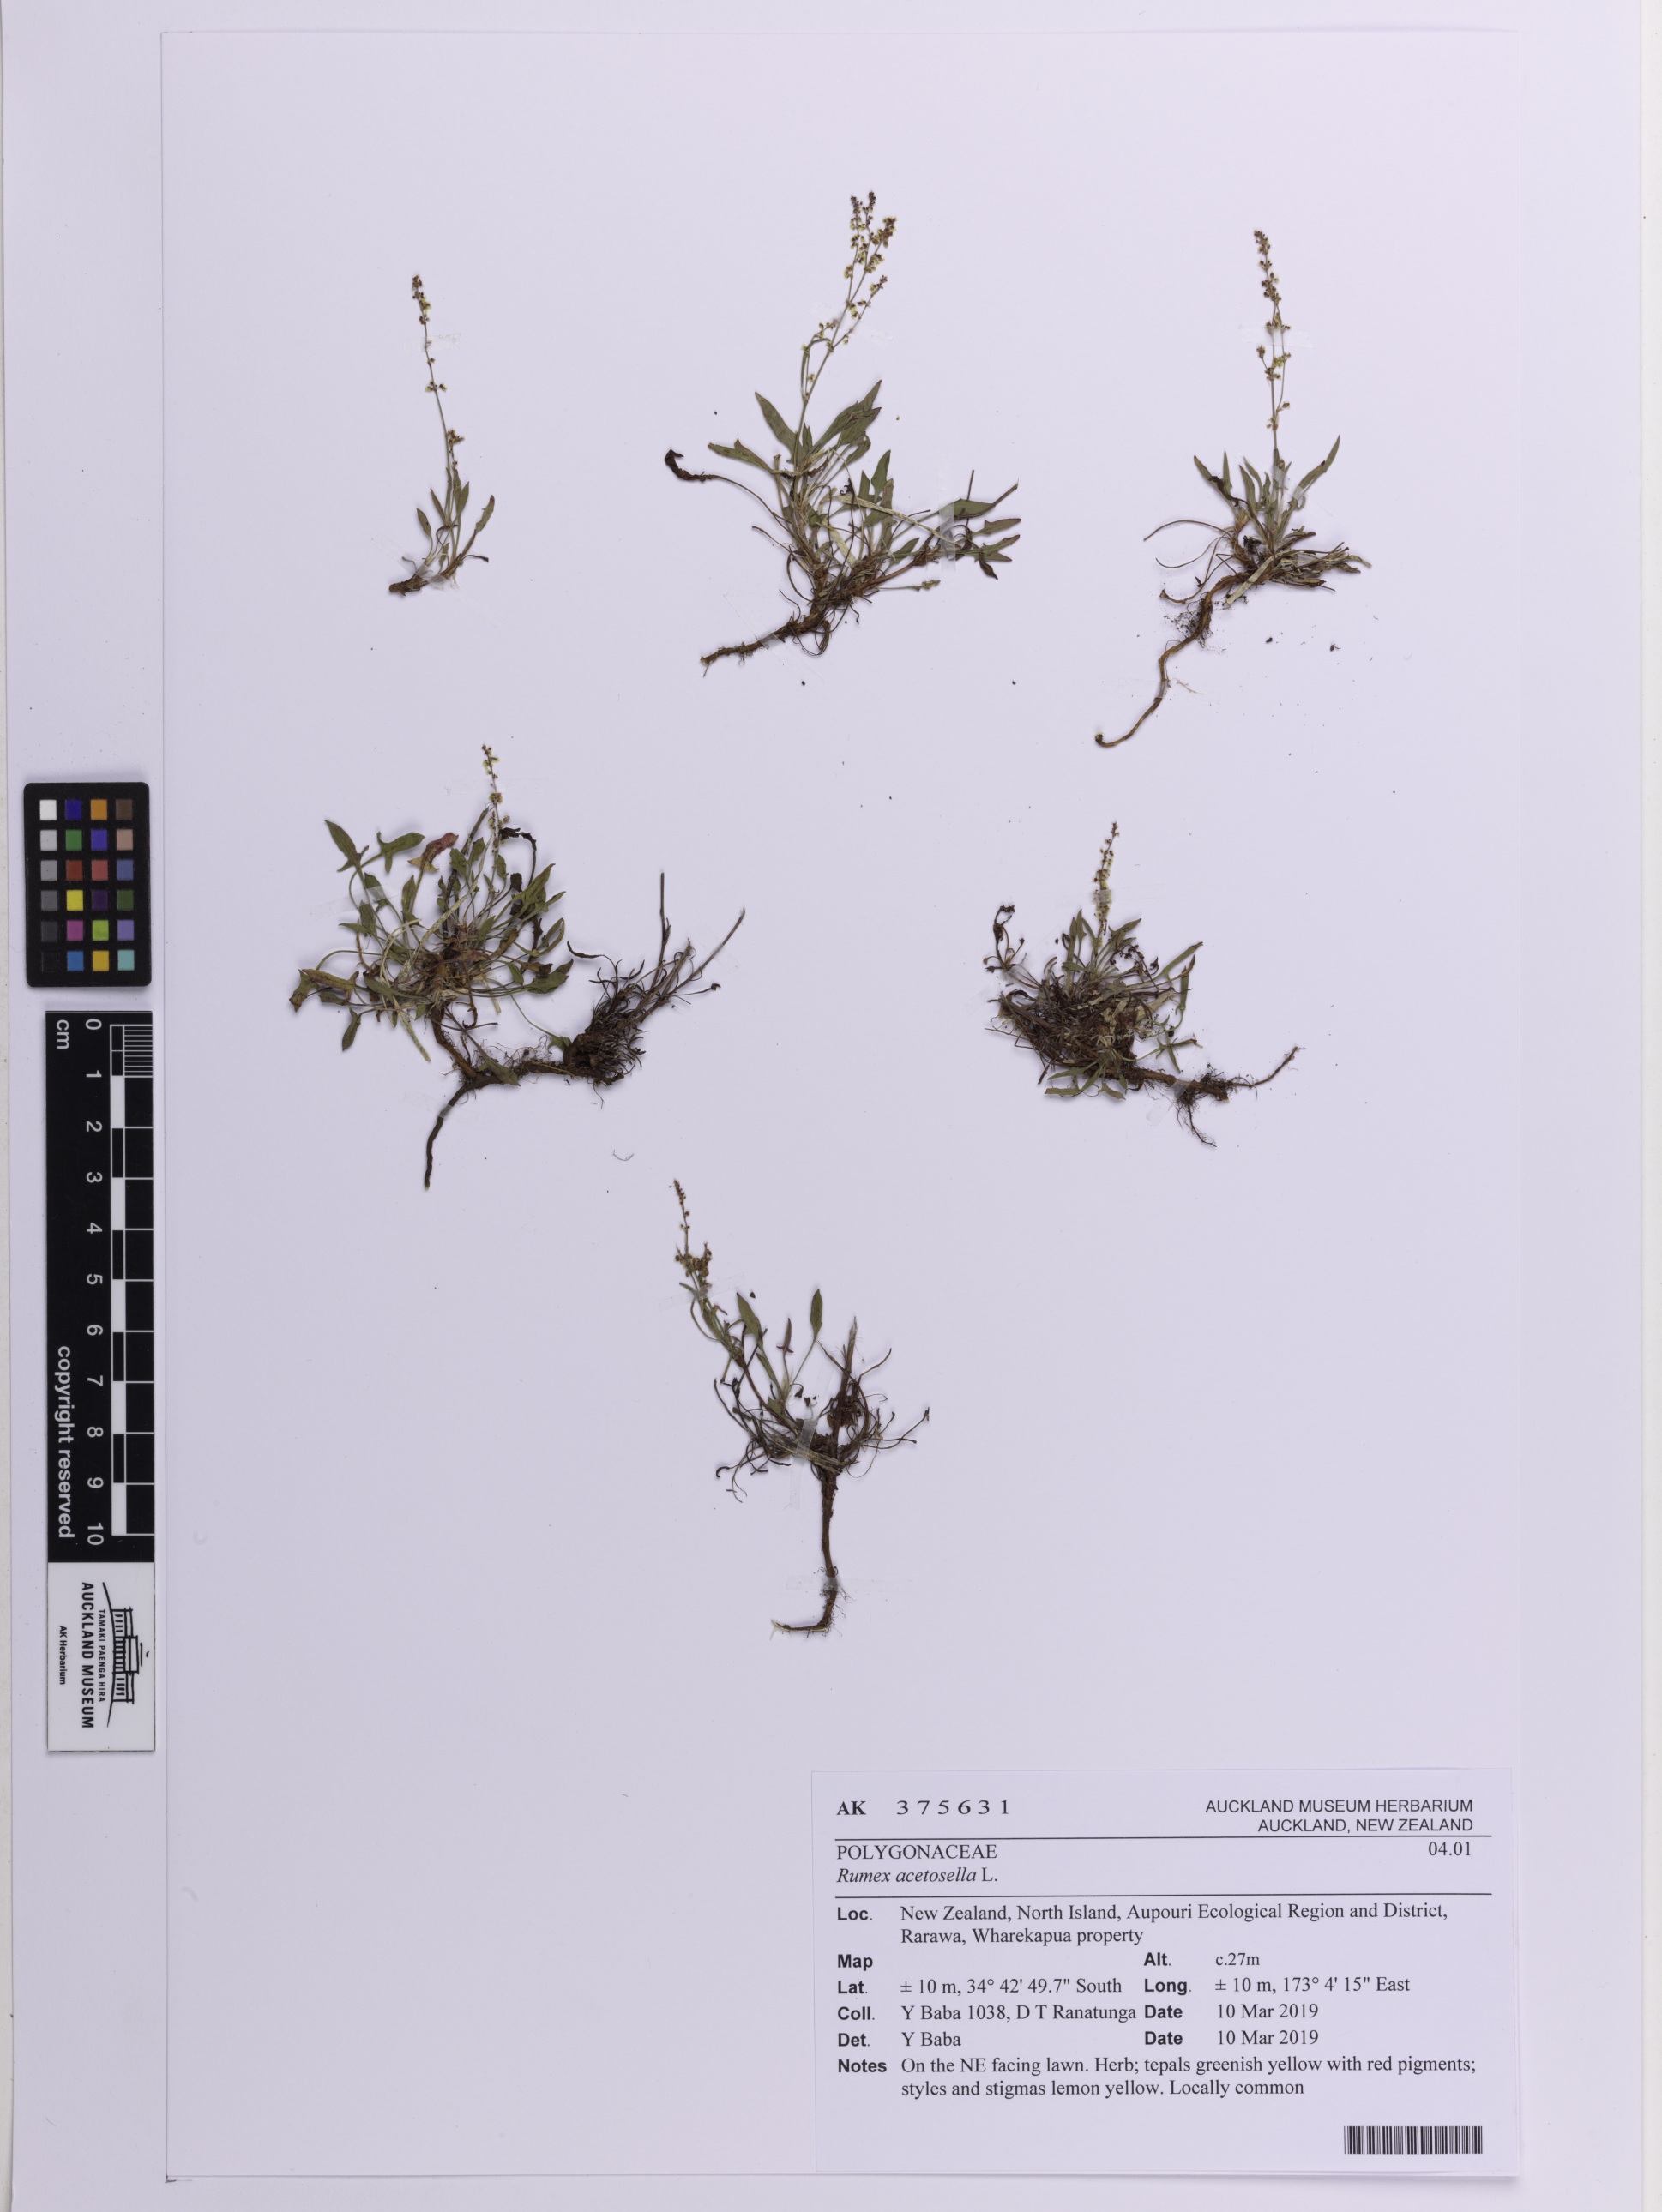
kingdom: Plantae
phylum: Tracheophyta
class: Magnoliopsida
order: Caryophyllales
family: Polygonaceae
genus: Rumex
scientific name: Rumex acetosella
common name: Common sheep sorrel
